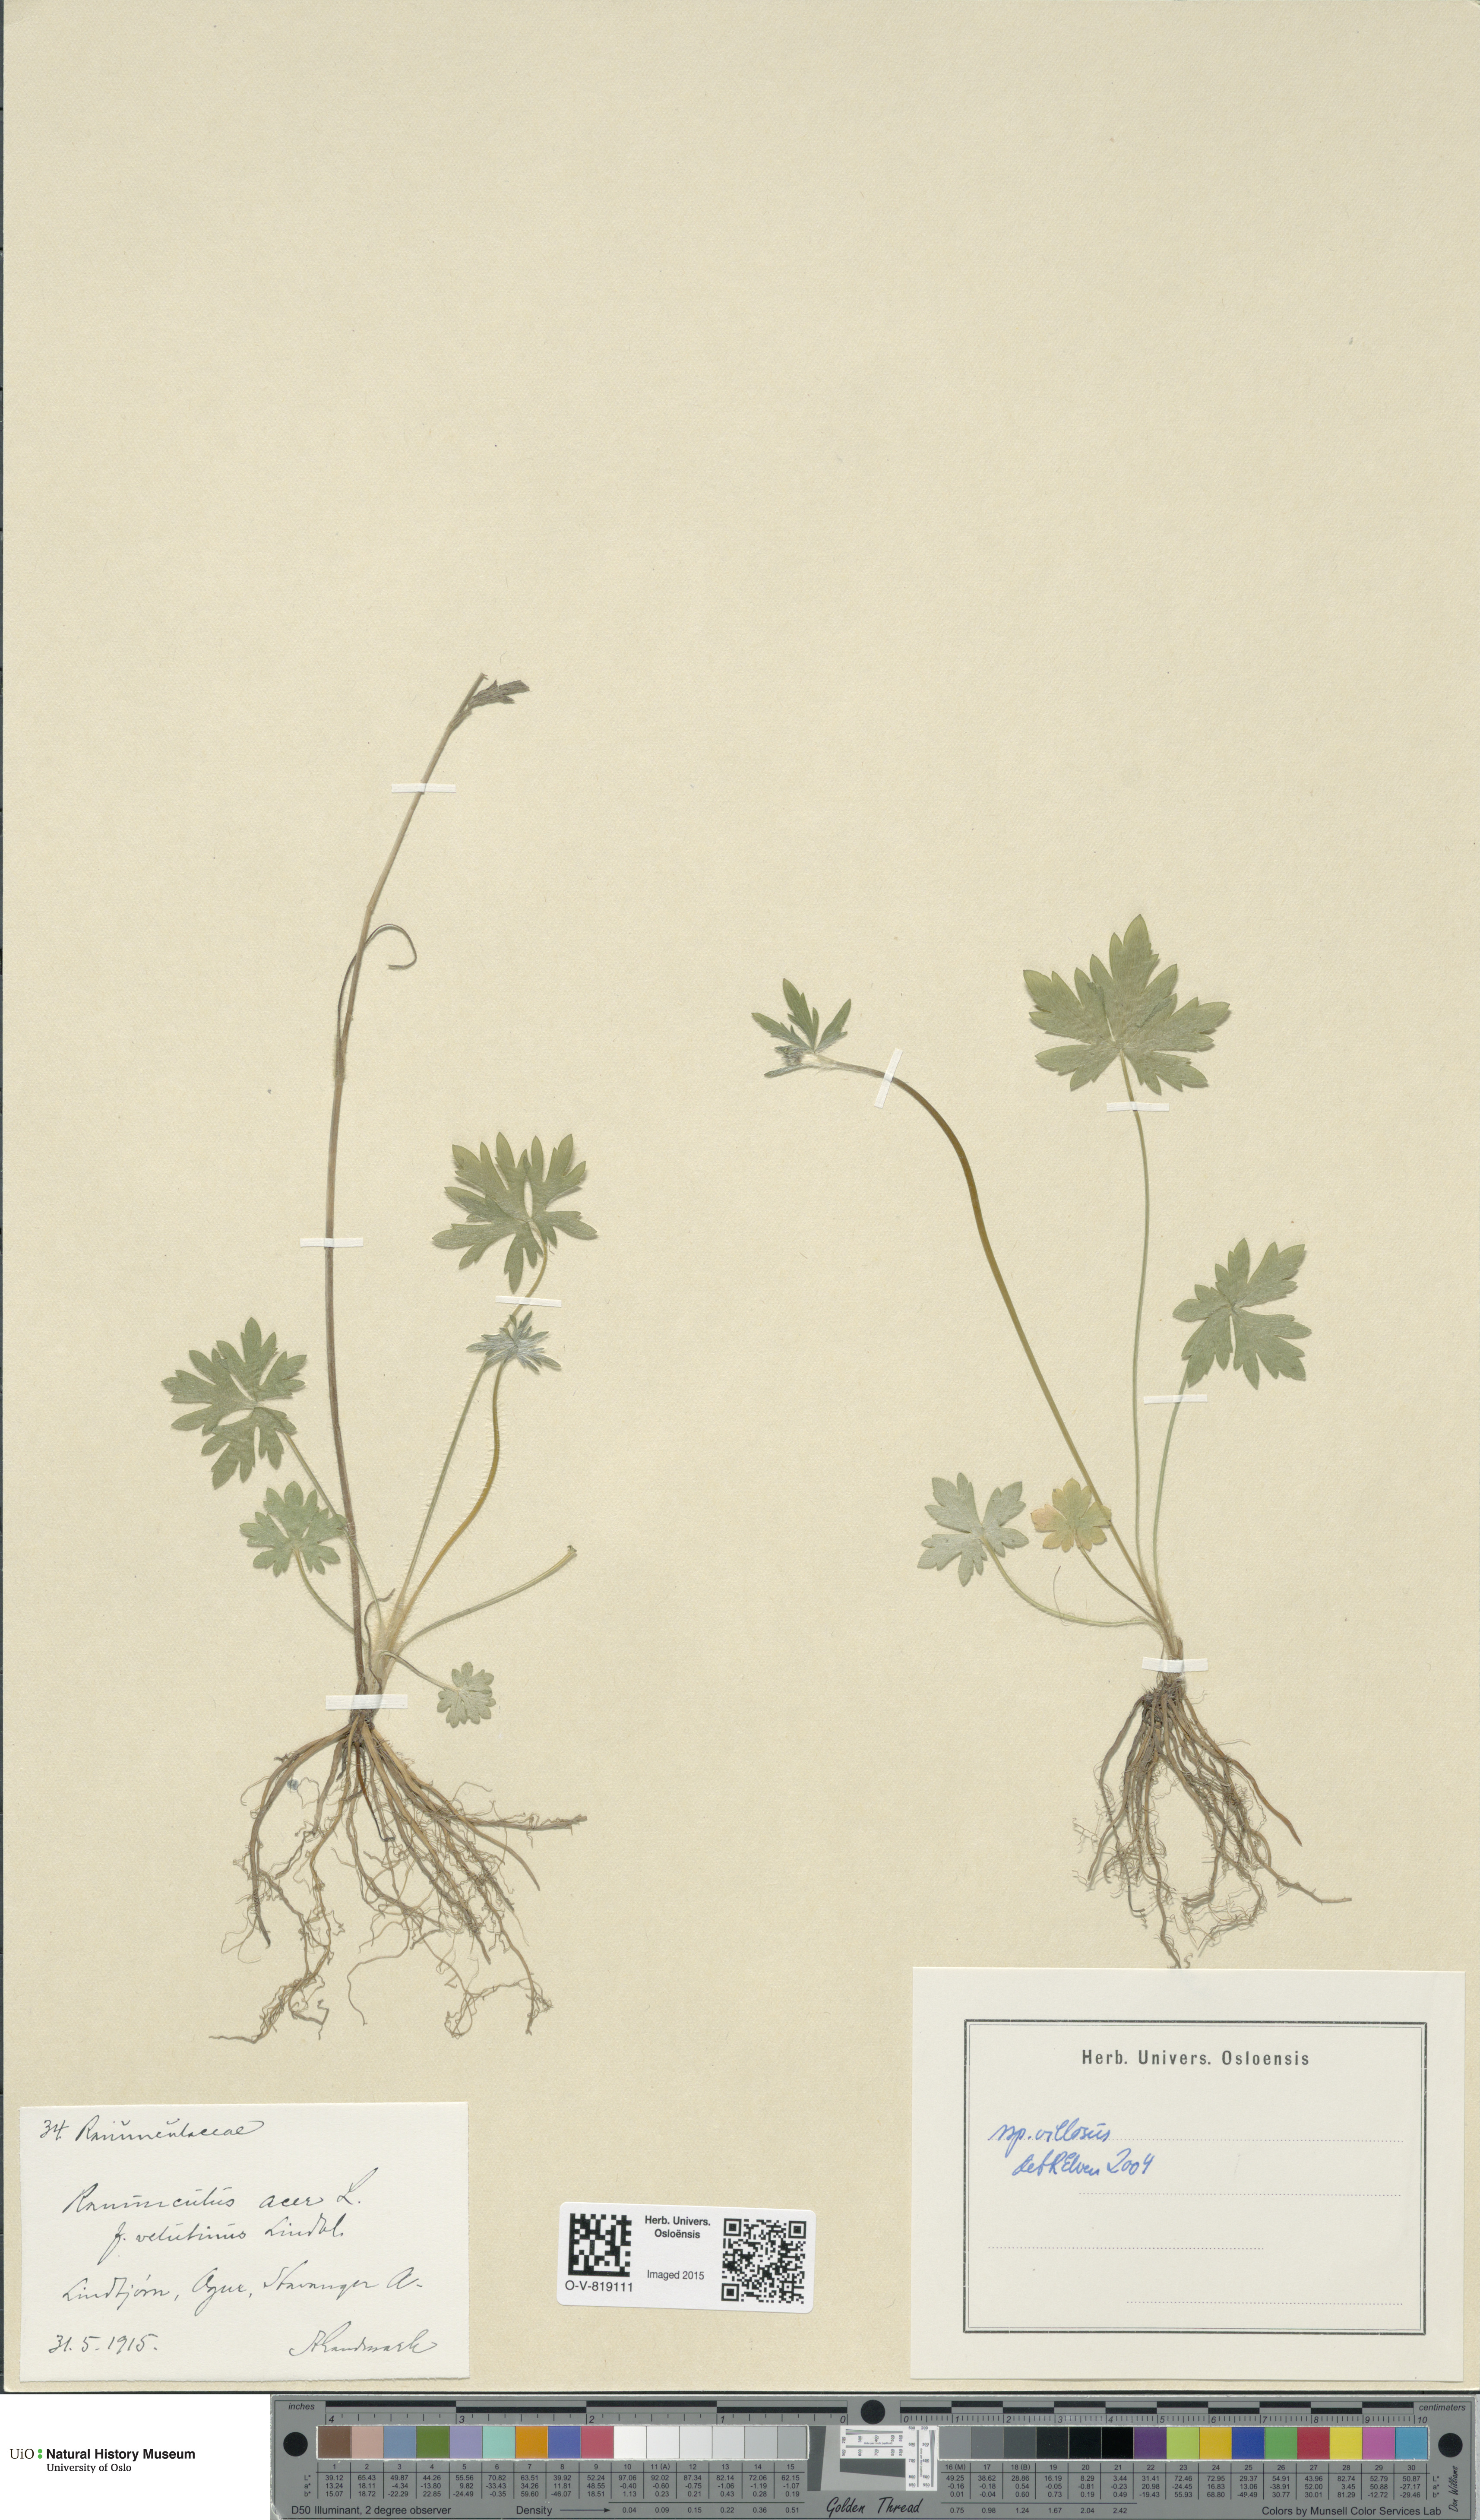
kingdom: Plantae
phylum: Tracheophyta
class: Magnoliopsida
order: Ranunculales
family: Ranunculaceae
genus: Ranunculus
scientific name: Ranunculus propinquus
